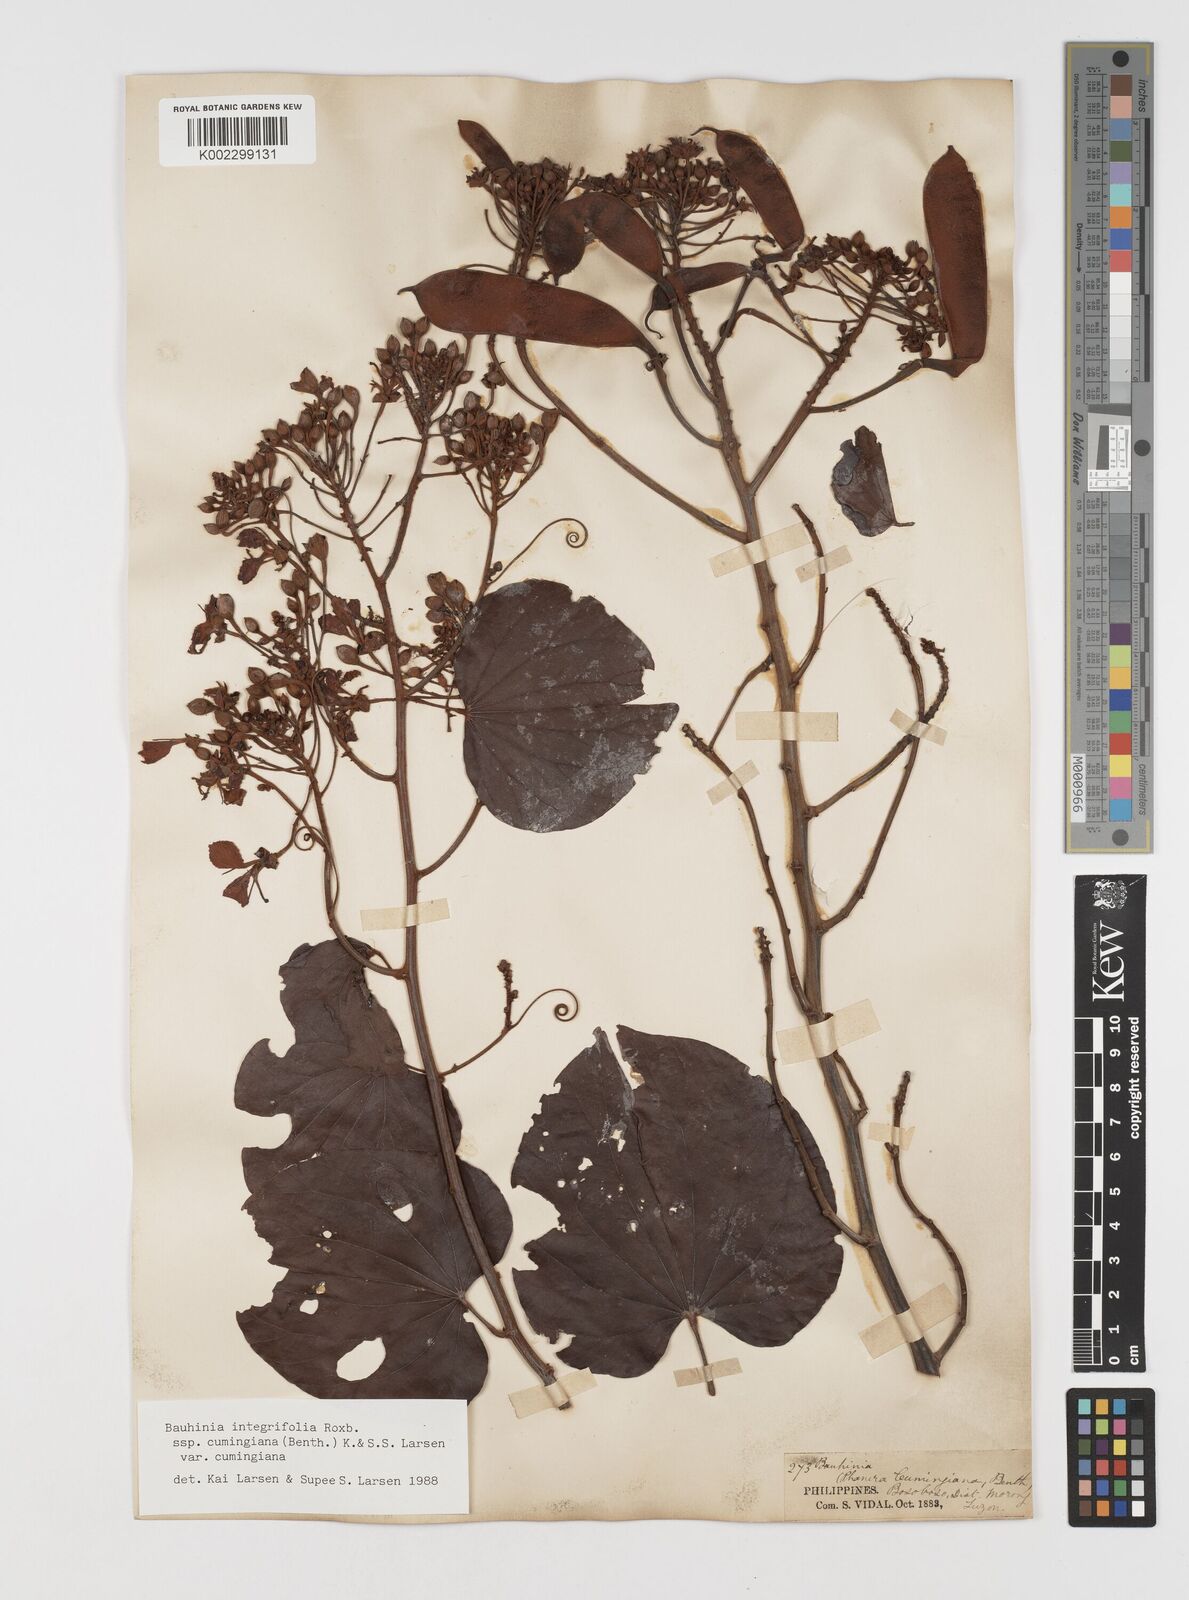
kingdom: Plantae
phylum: Tracheophyta
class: Magnoliopsida
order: Fabales
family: Fabaceae
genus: Phanera
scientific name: Phanera integrifolia
